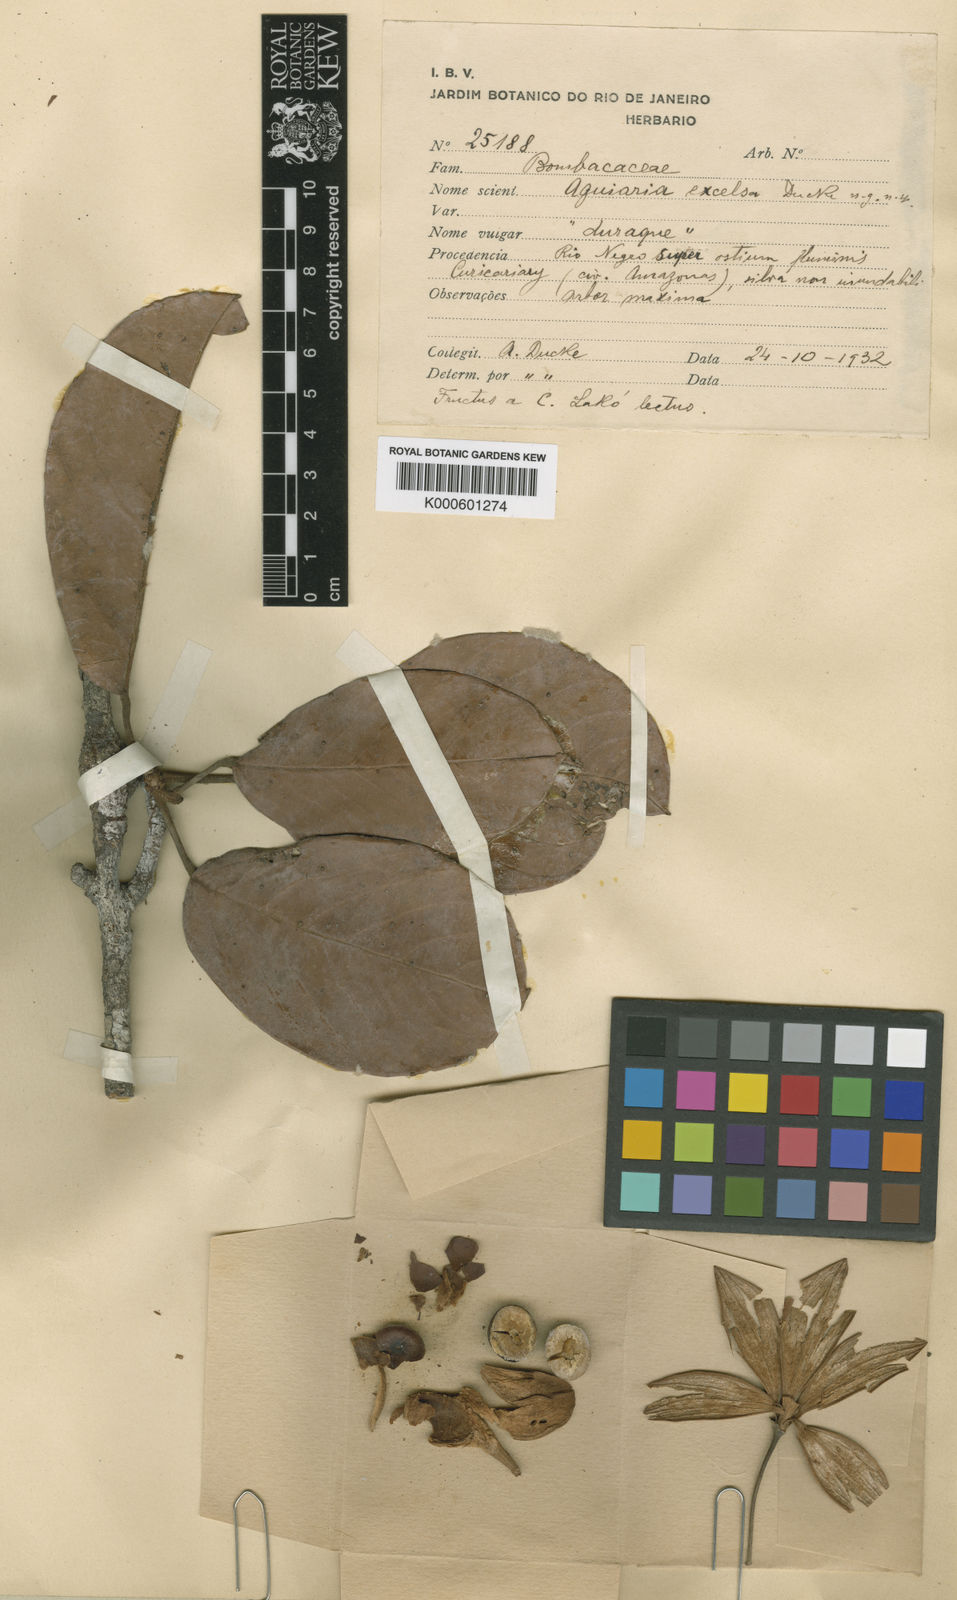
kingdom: Plantae
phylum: Tracheophyta
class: Magnoliopsida
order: Malvales
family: Malvaceae
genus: Aguiaria
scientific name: Aguiaria excelsa
